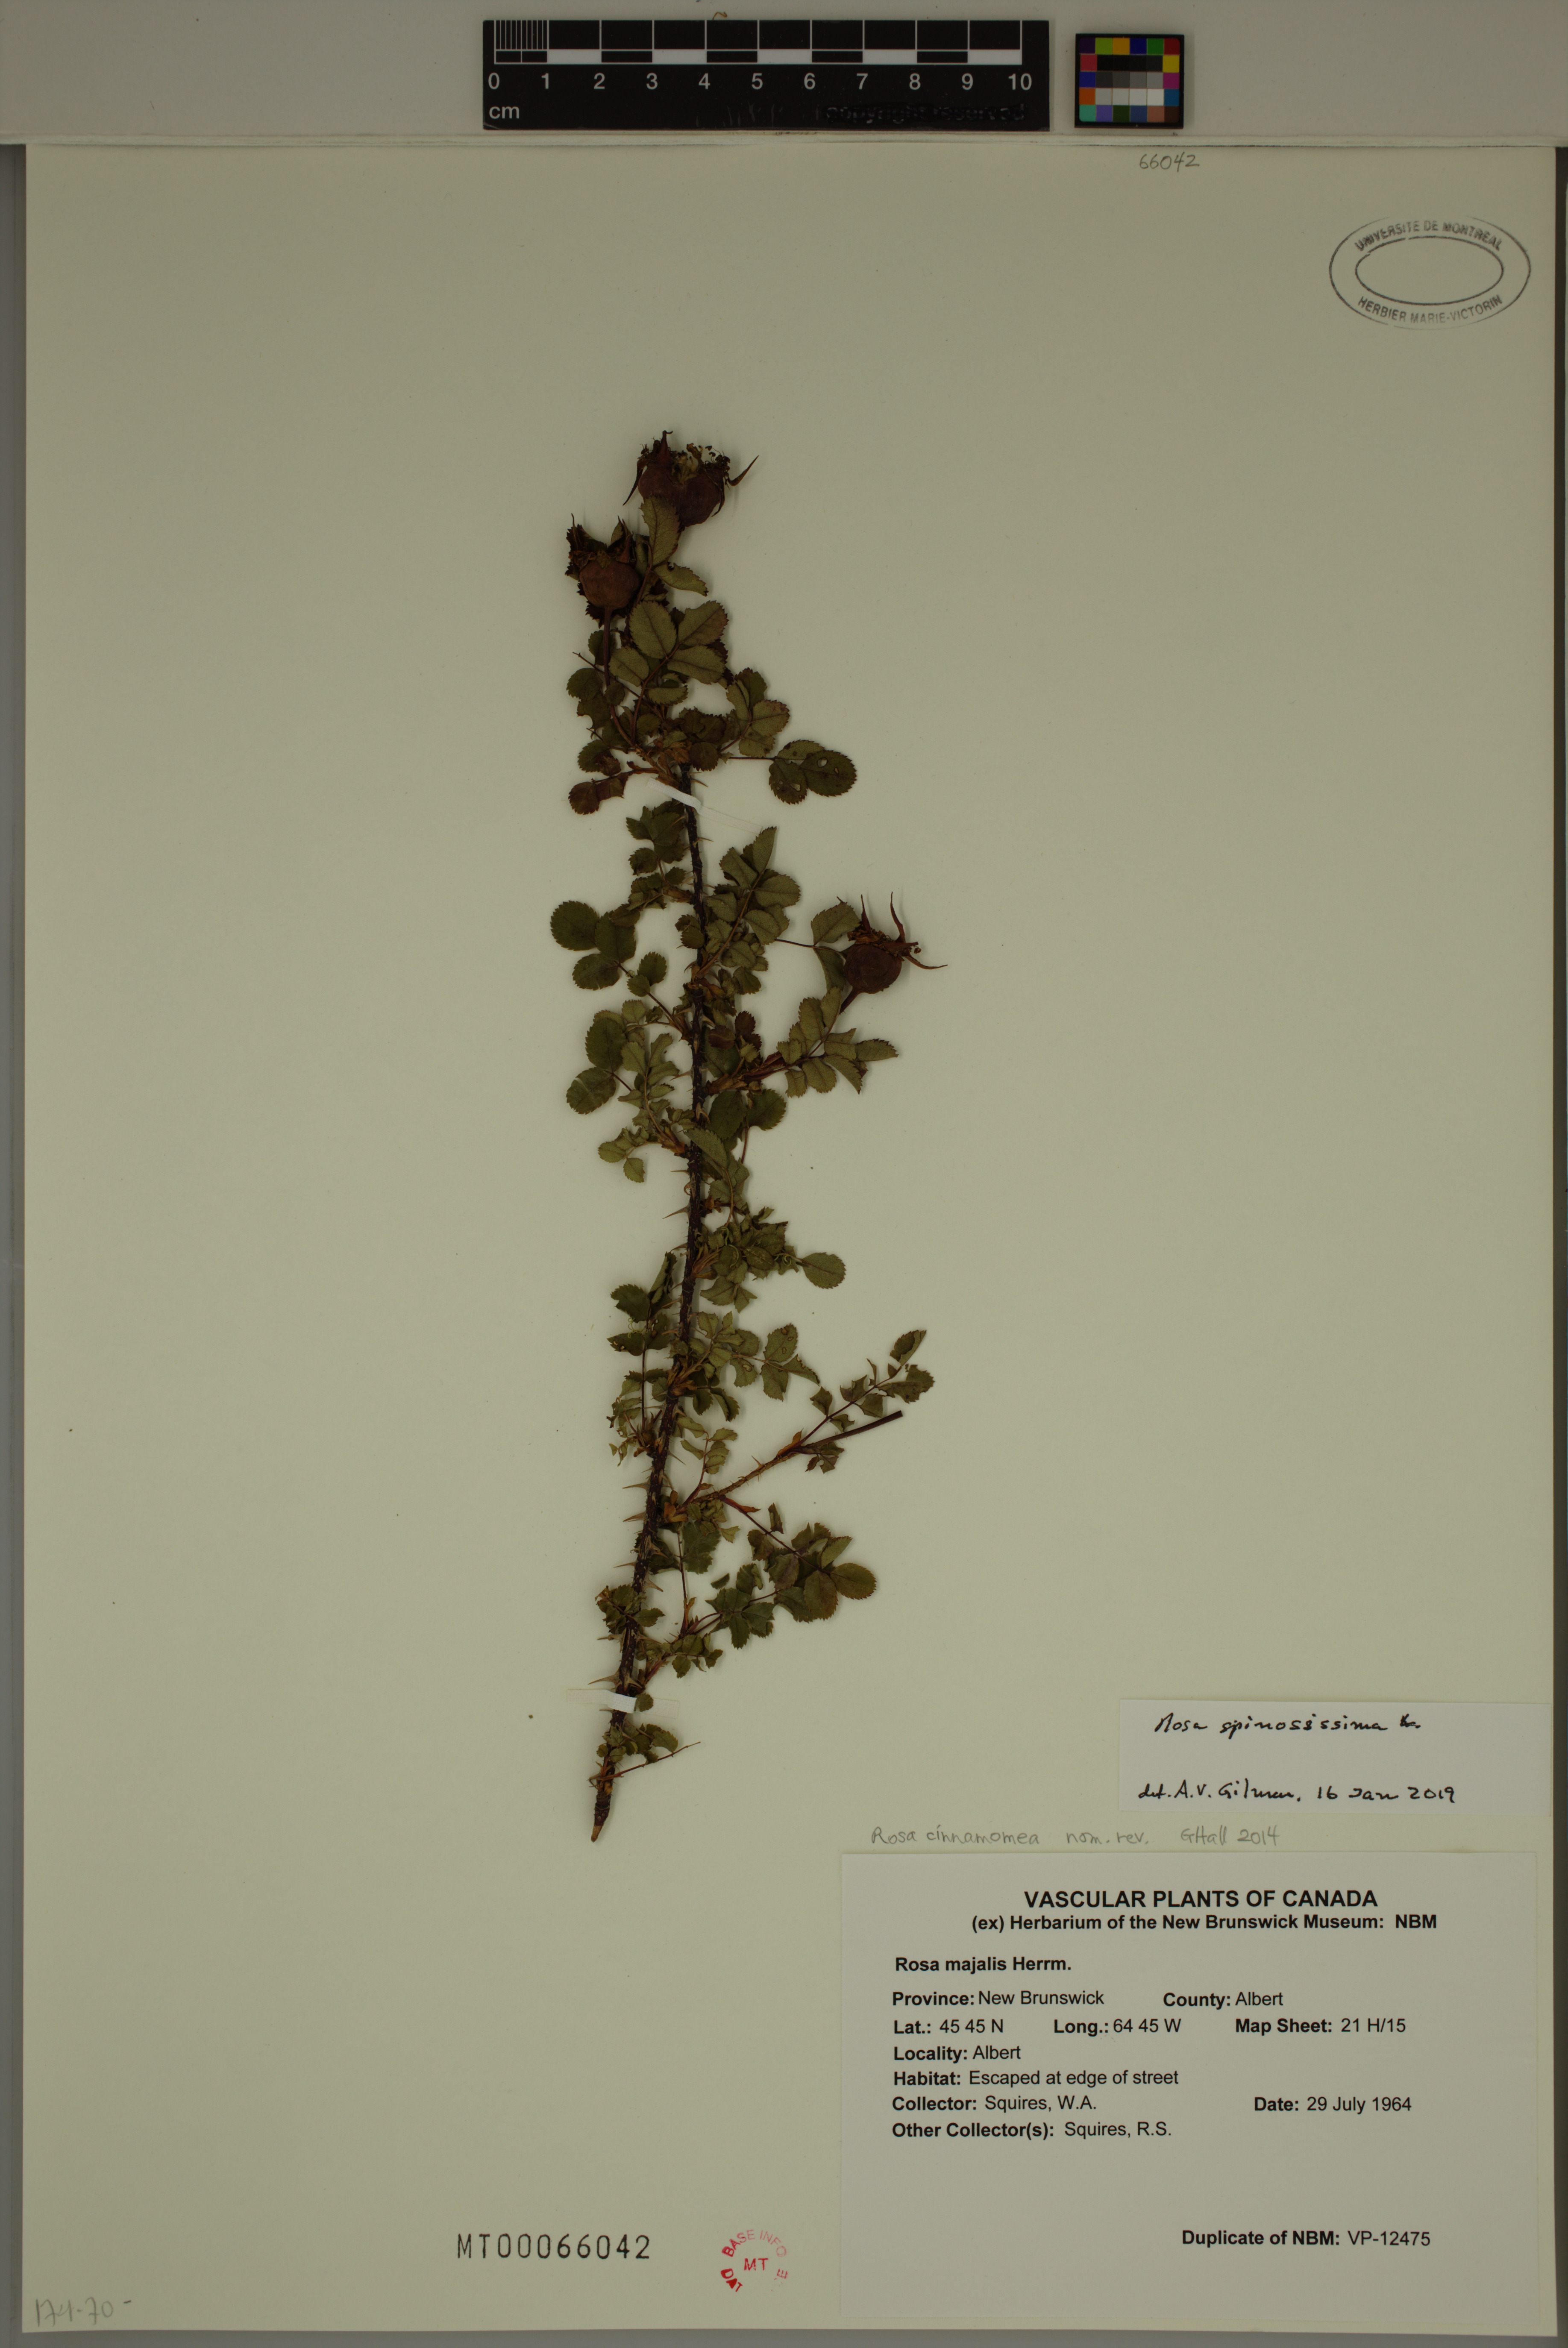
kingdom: Plantae
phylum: Tracheophyta
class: Magnoliopsida
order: Rosales
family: Rosaceae
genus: Rosa
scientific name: Rosa spinosissima
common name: Burnet rose
